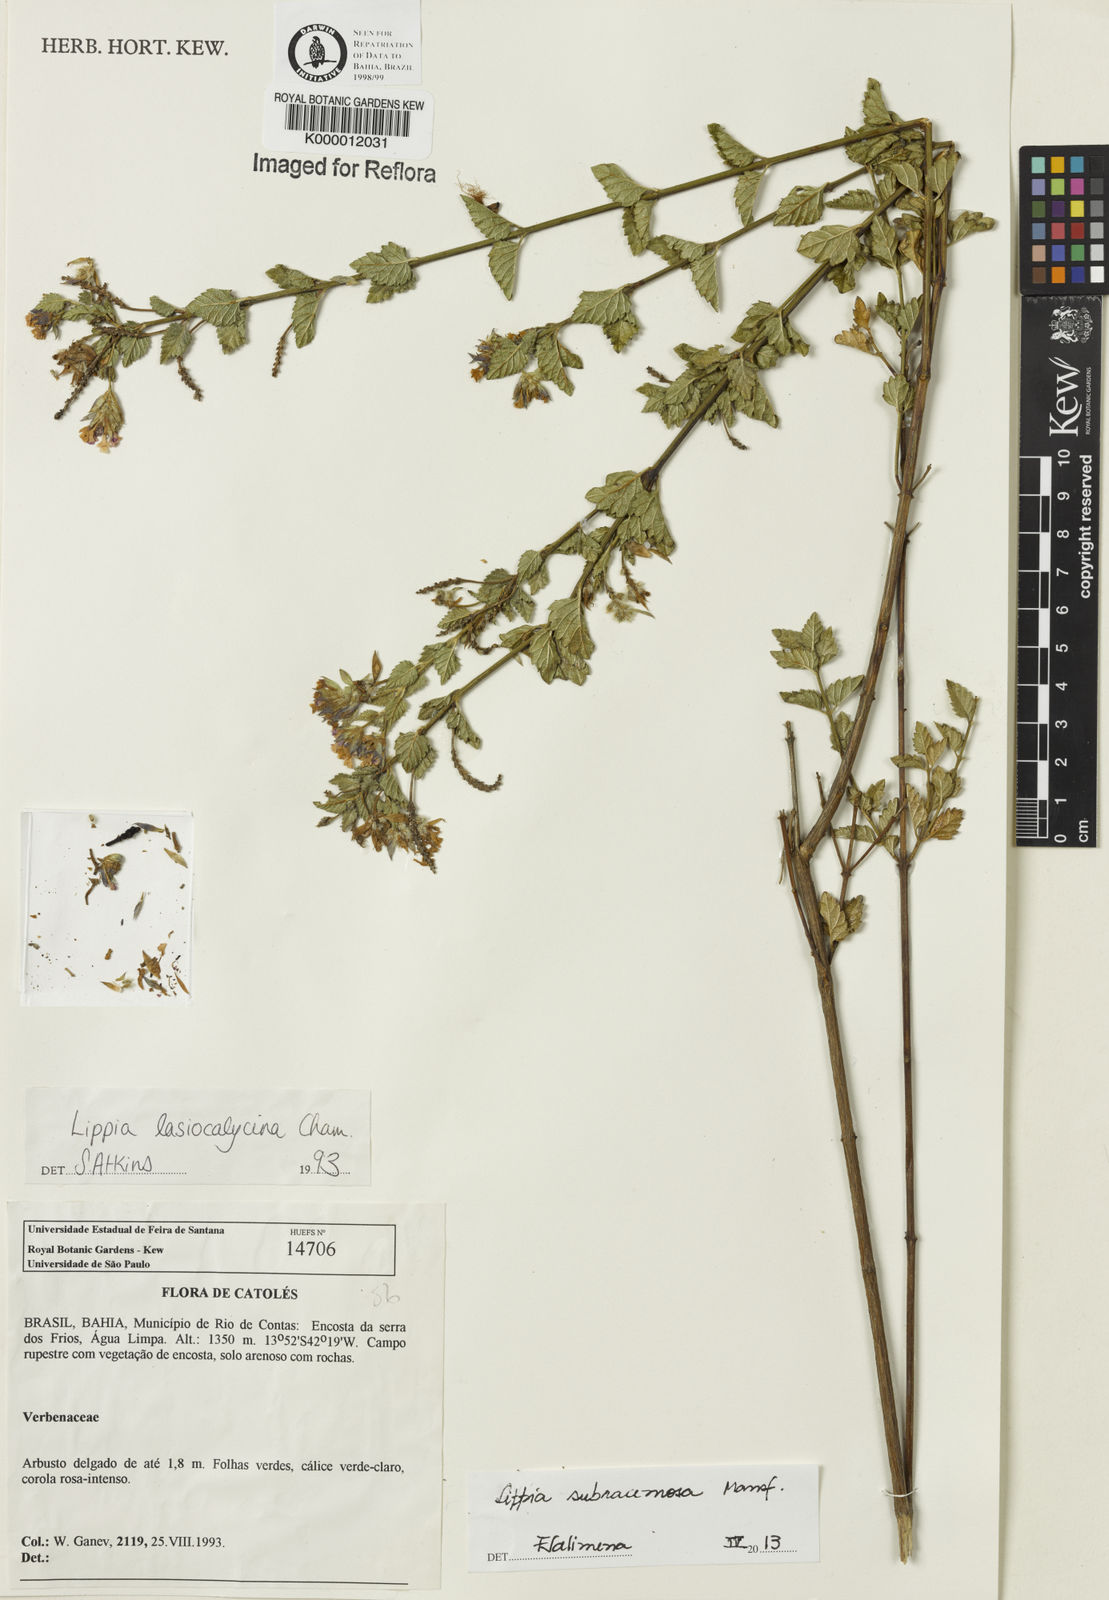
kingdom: Plantae
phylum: Tracheophyta
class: Magnoliopsida
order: Lamiales
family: Verbenaceae
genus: Lippia
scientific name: Lippia lasiocalycina
